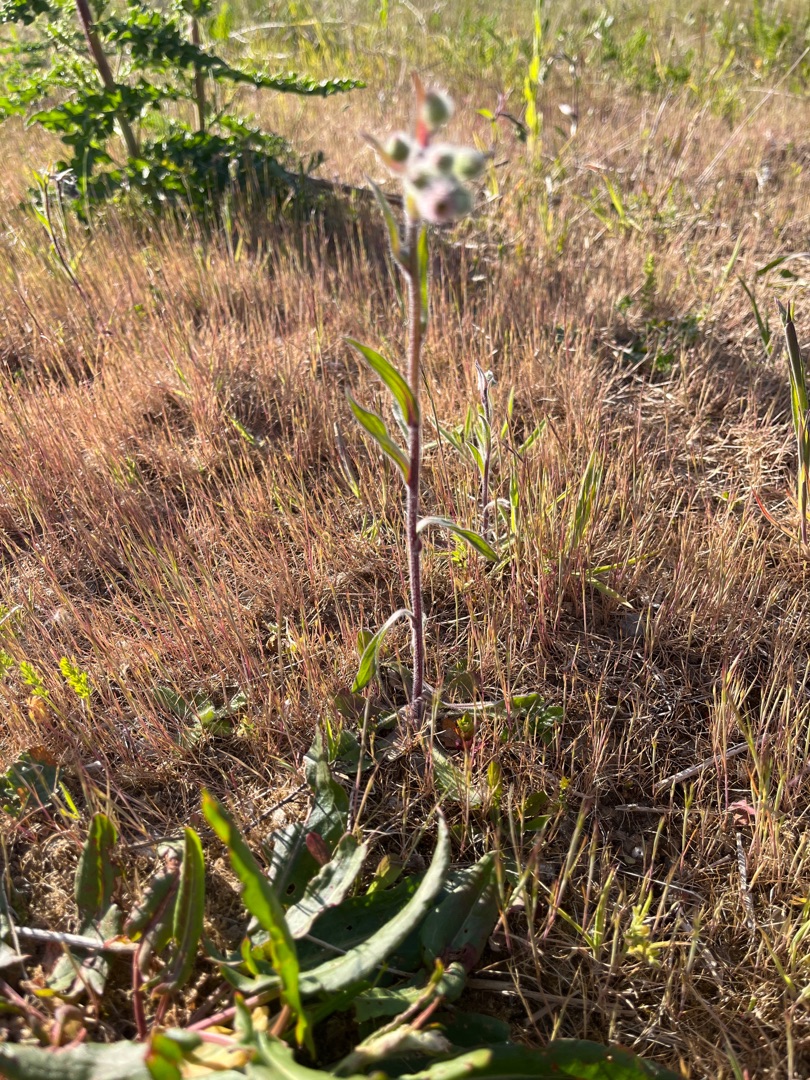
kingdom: Plantae
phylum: Tracheophyta
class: Magnoliopsida
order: Asterales
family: Asteraceae
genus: Erigeron
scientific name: Erigeron acris
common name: Bitter bakkestjerne
